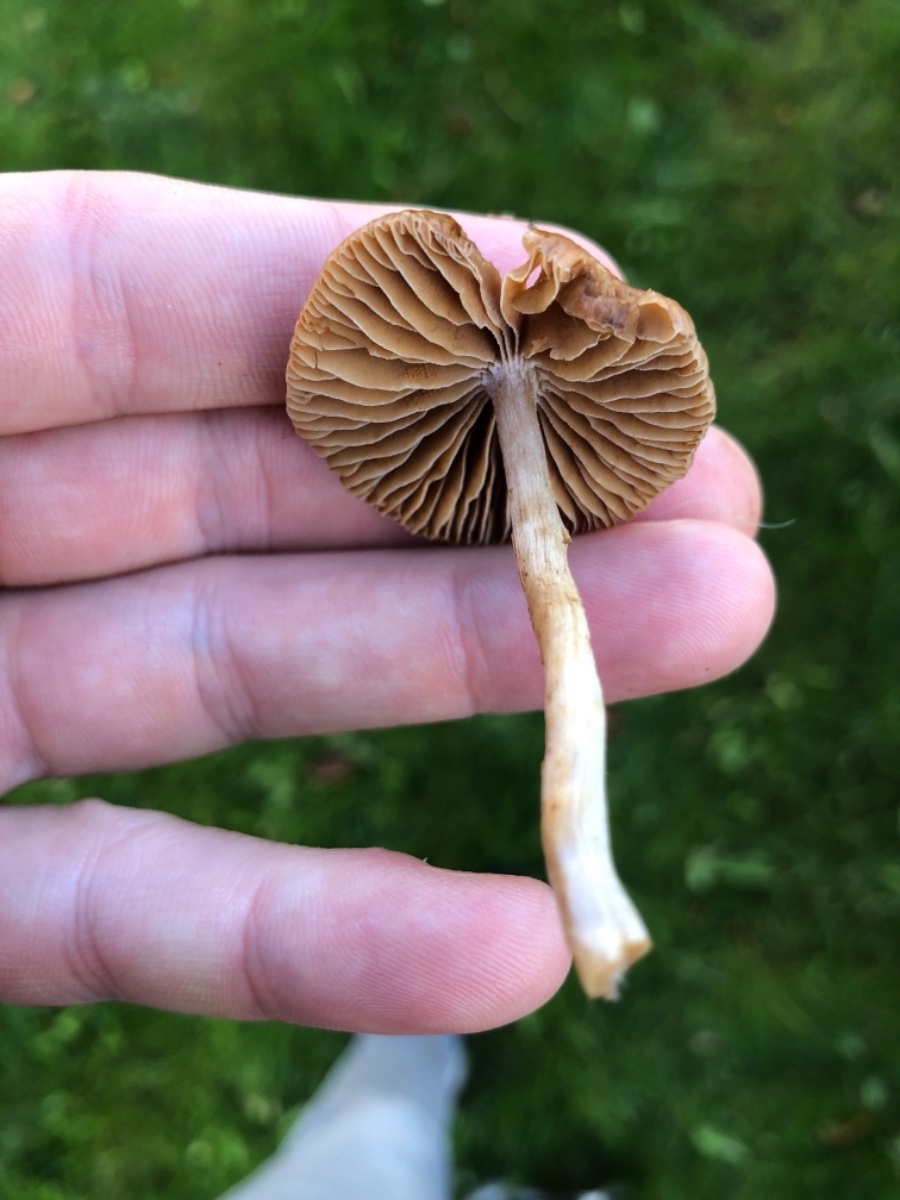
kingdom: Fungi
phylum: Basidiomycota
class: Agaricomycetes
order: Agaricales
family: Cortinariaceae
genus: Cortinarius
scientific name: Cortinarius
